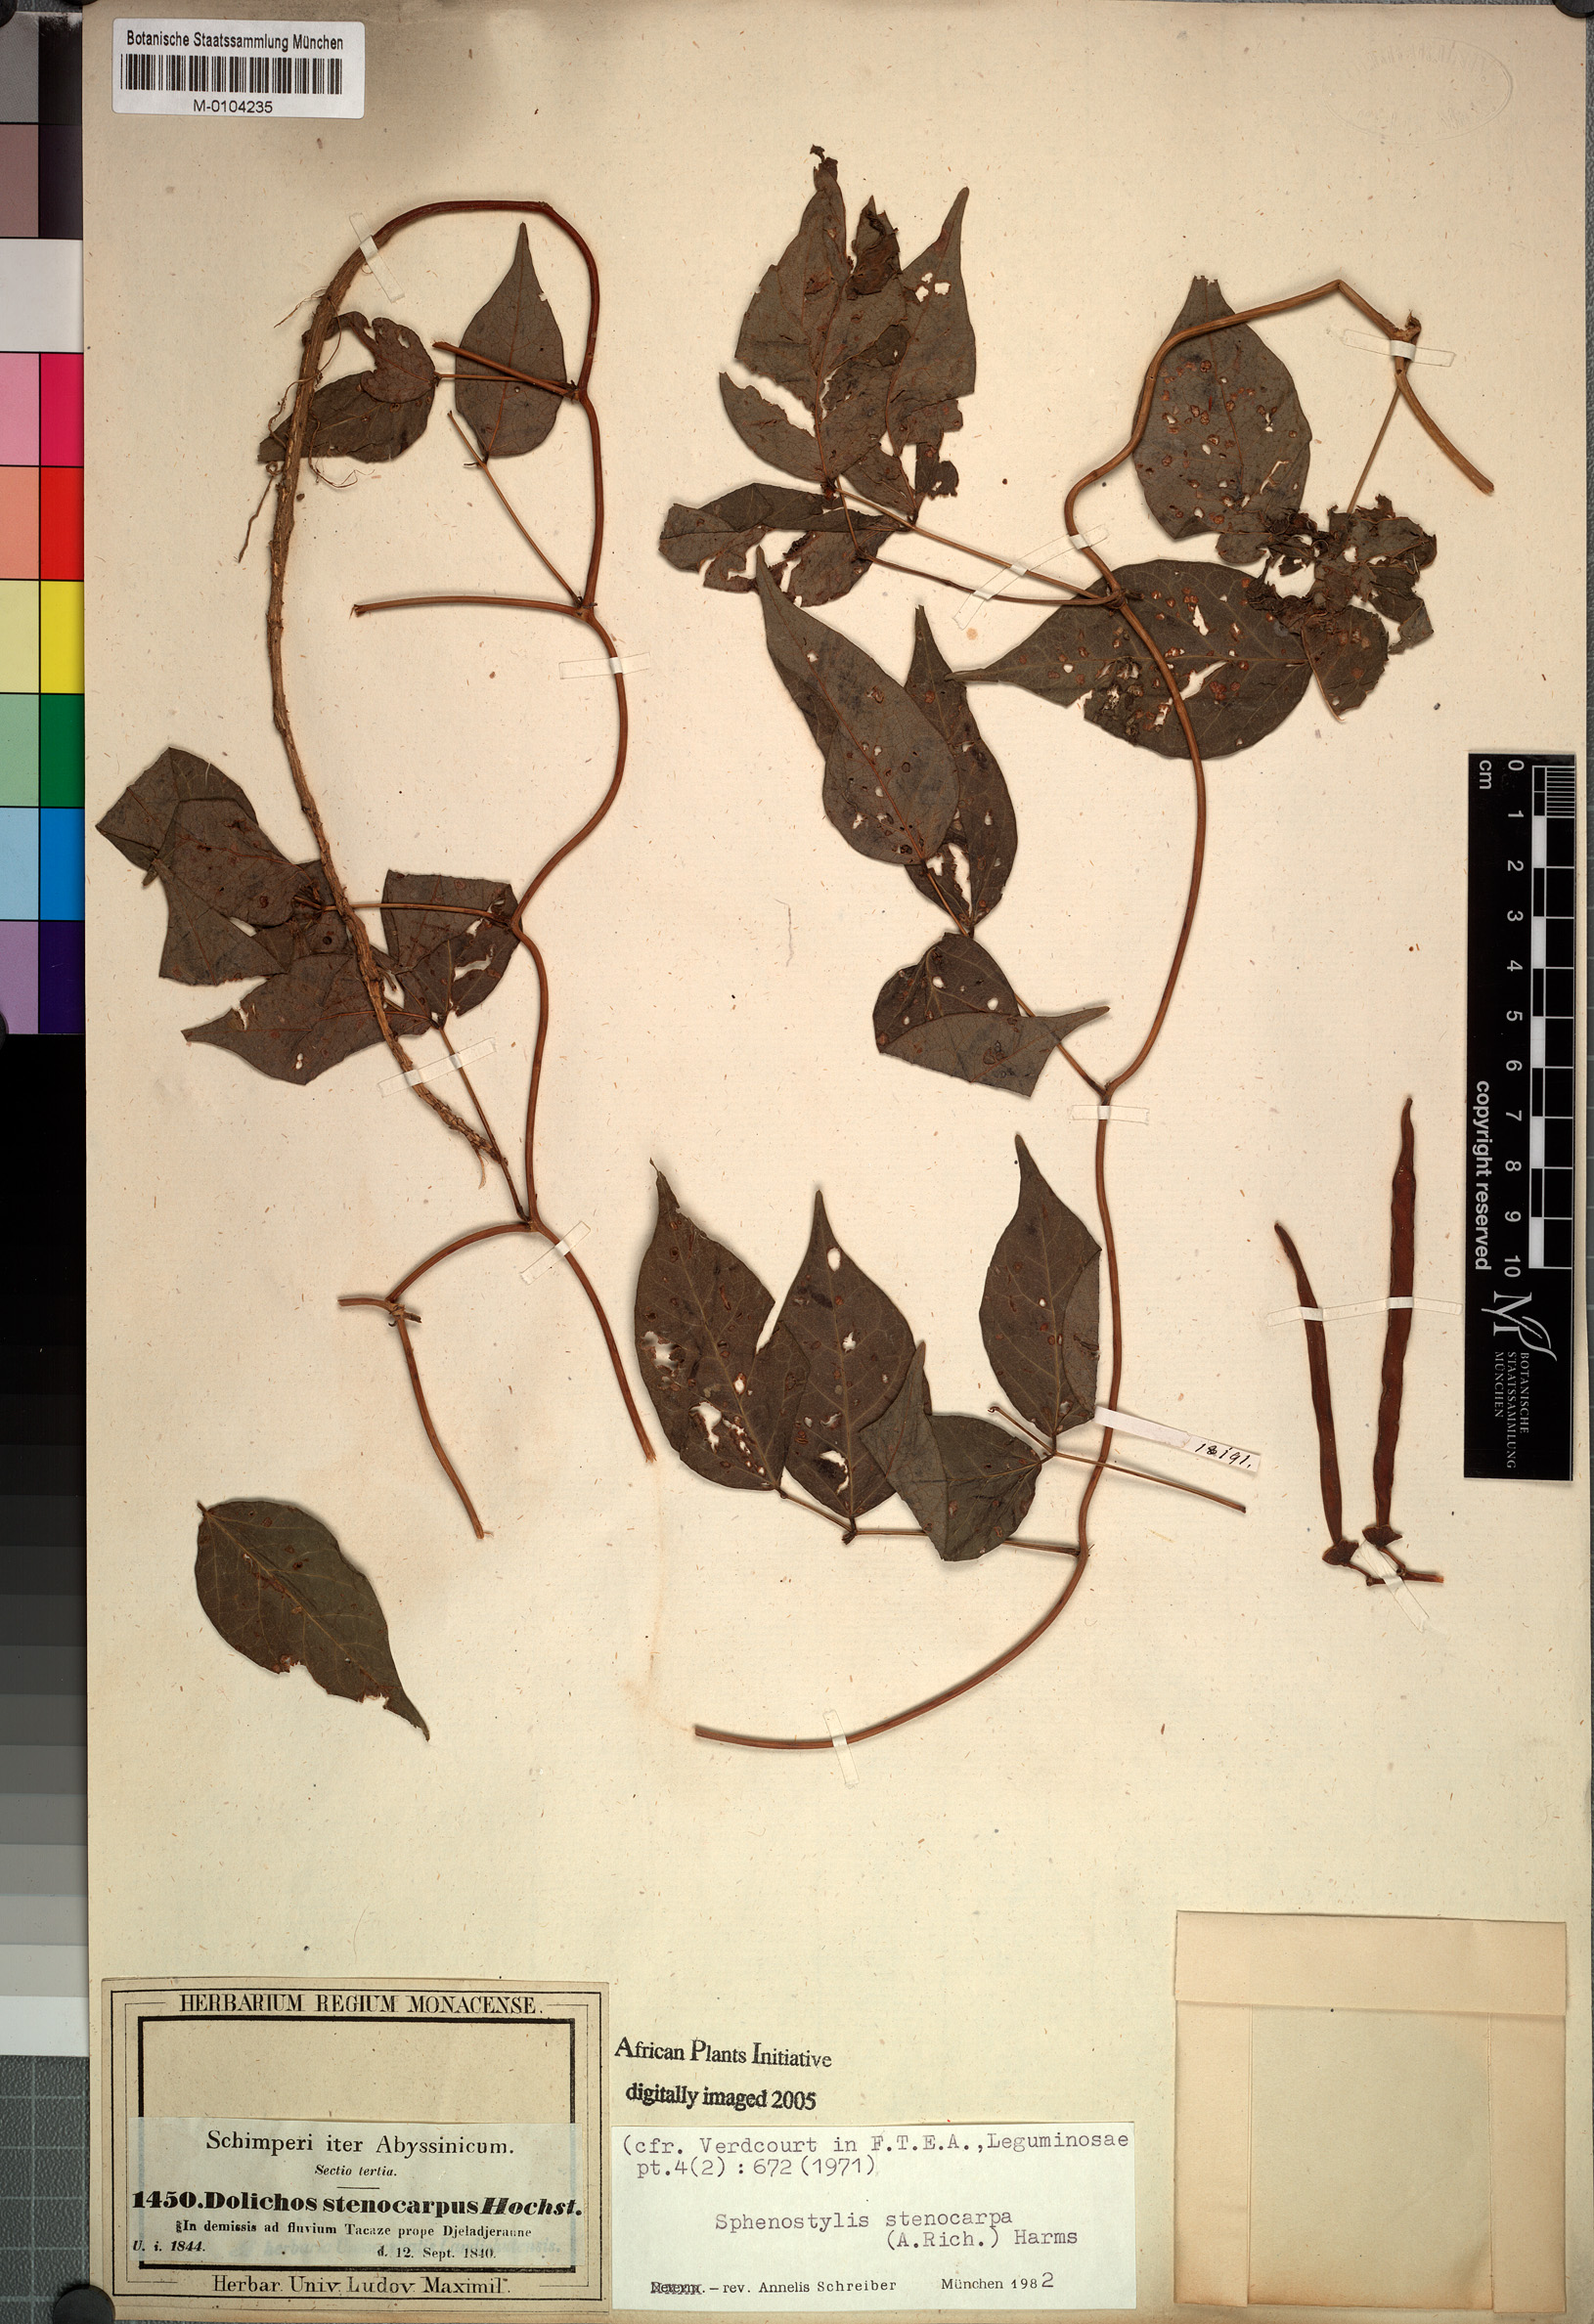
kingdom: Plantae
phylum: Tracheophyta
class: Magnoliopsida
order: Fabales
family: Fabaceae
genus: Sphenostylis
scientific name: Sphenostylis stenocarpa
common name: Yam-pea
